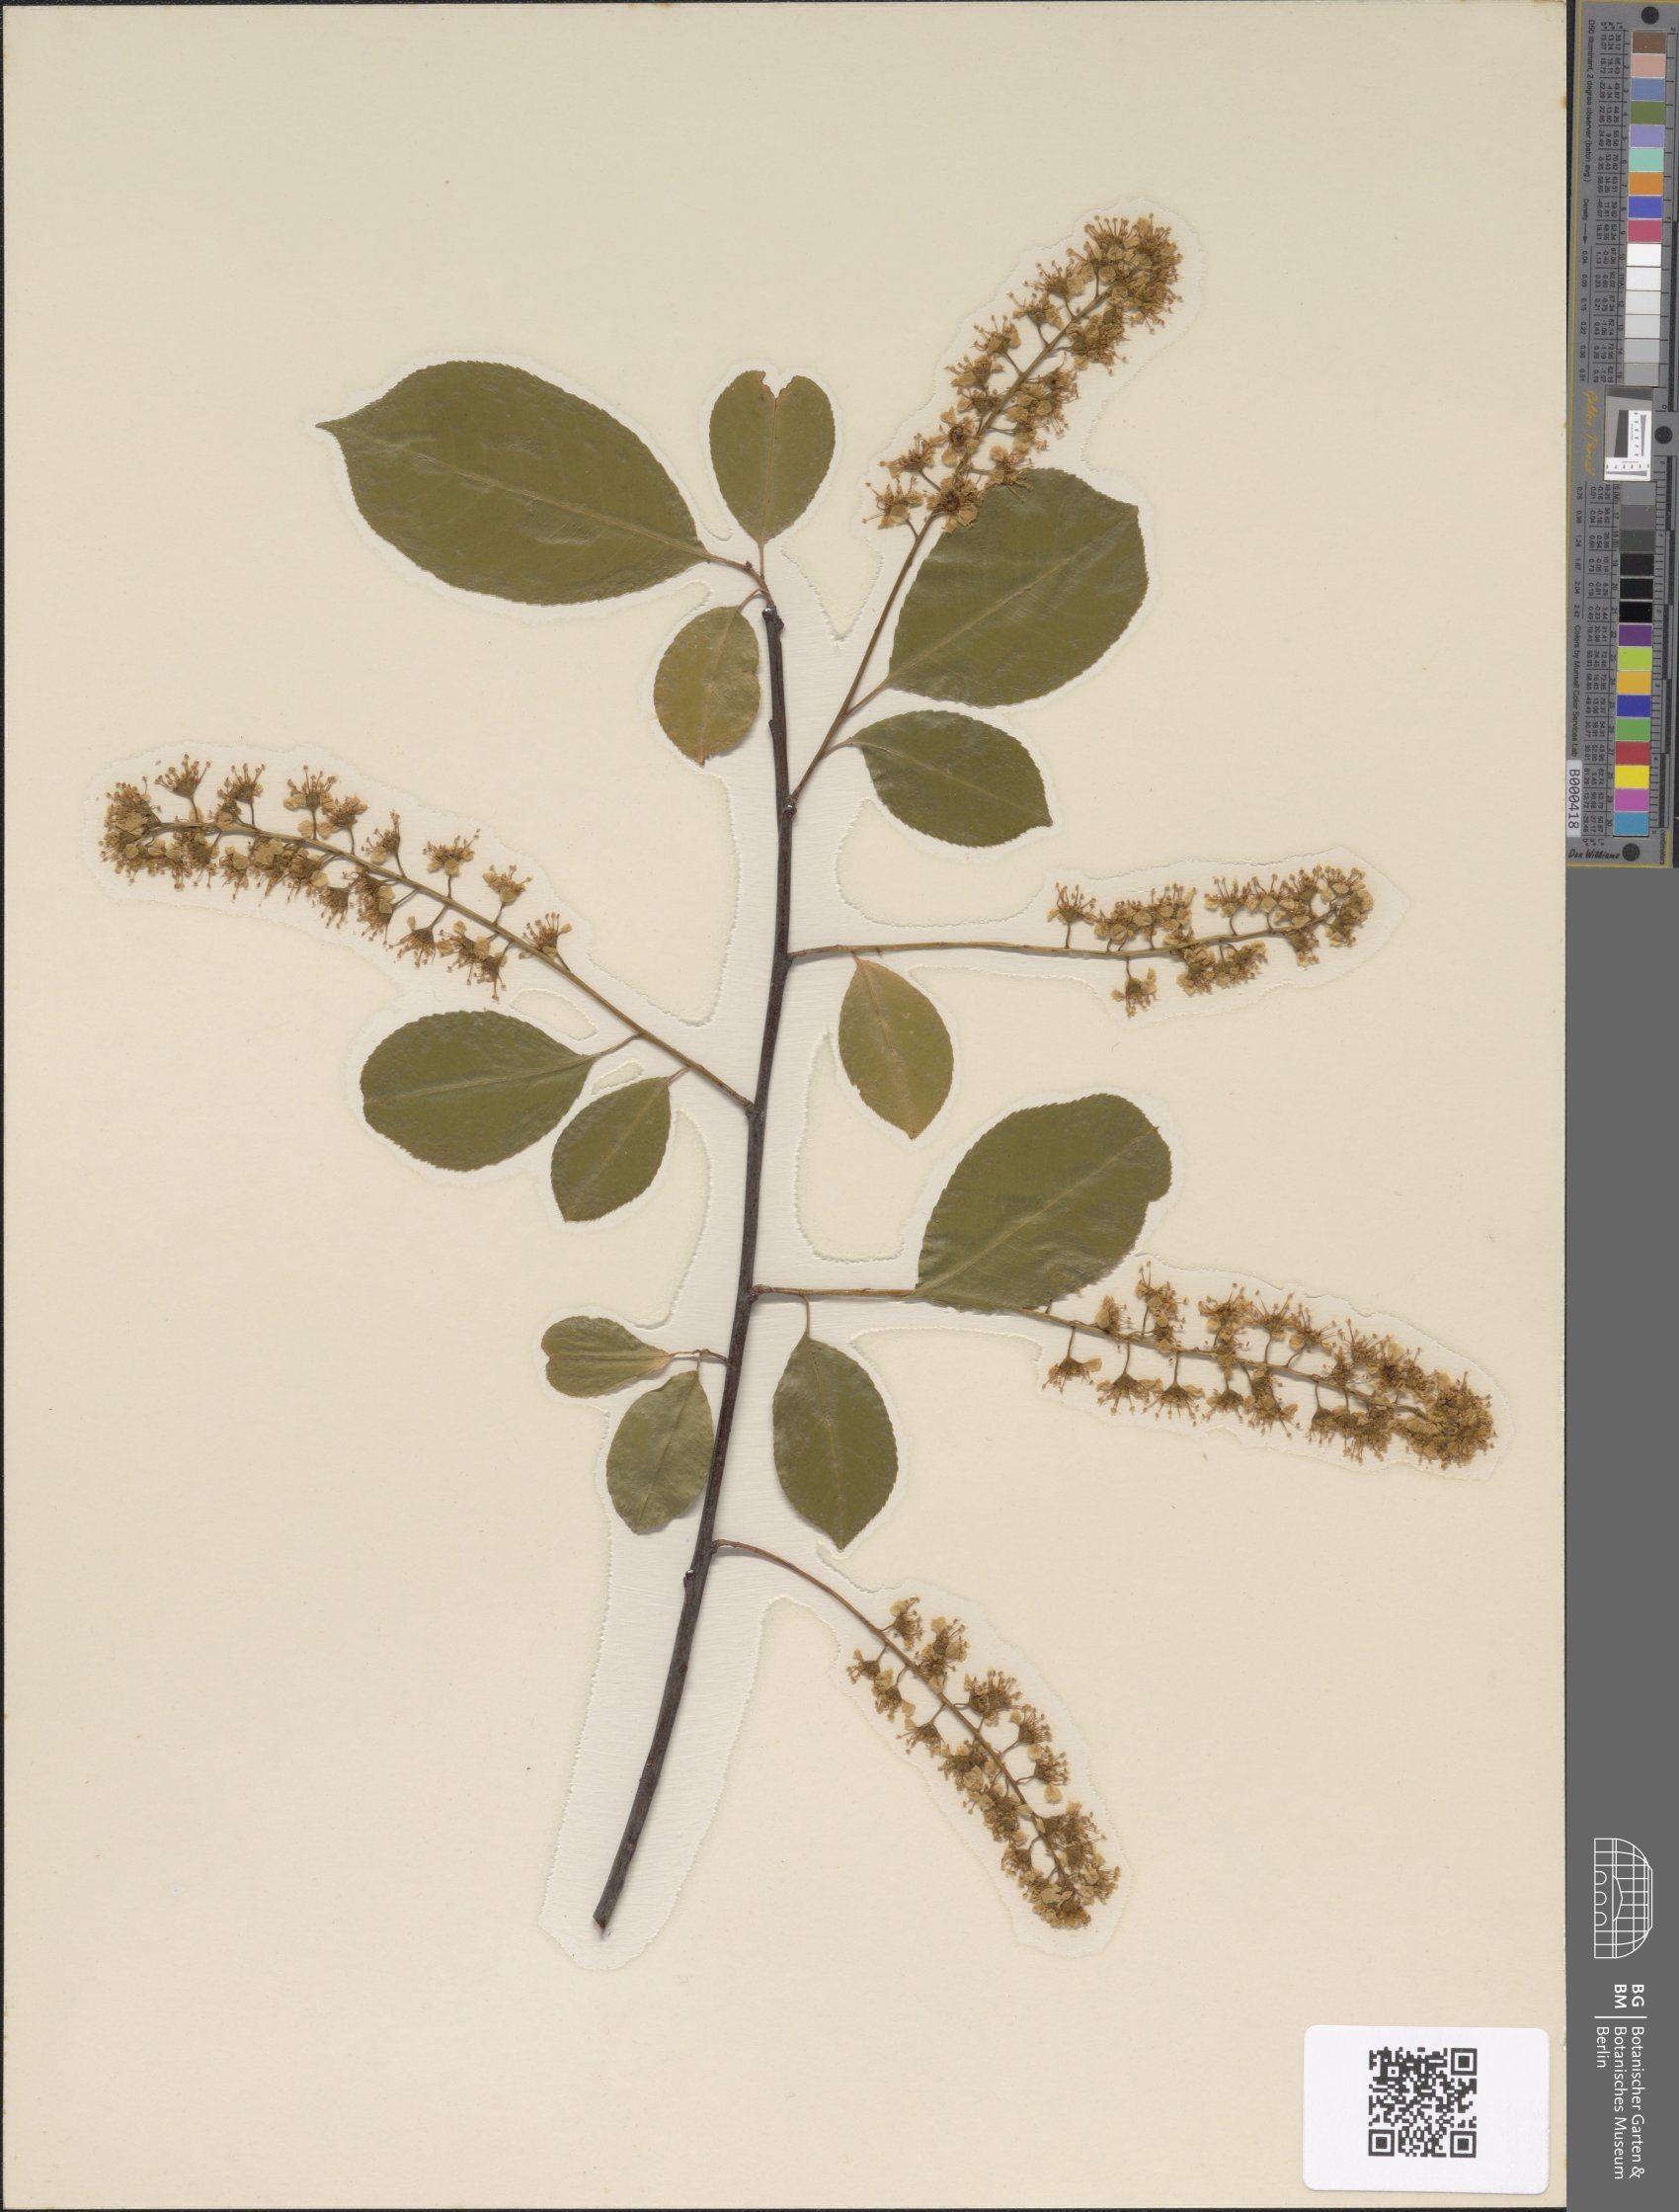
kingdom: Plantae
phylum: Tracheophyta
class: Magnoliopsida
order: Rosales
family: Rosaceae
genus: Prunus
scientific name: Prunus padus
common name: Bird cherry
